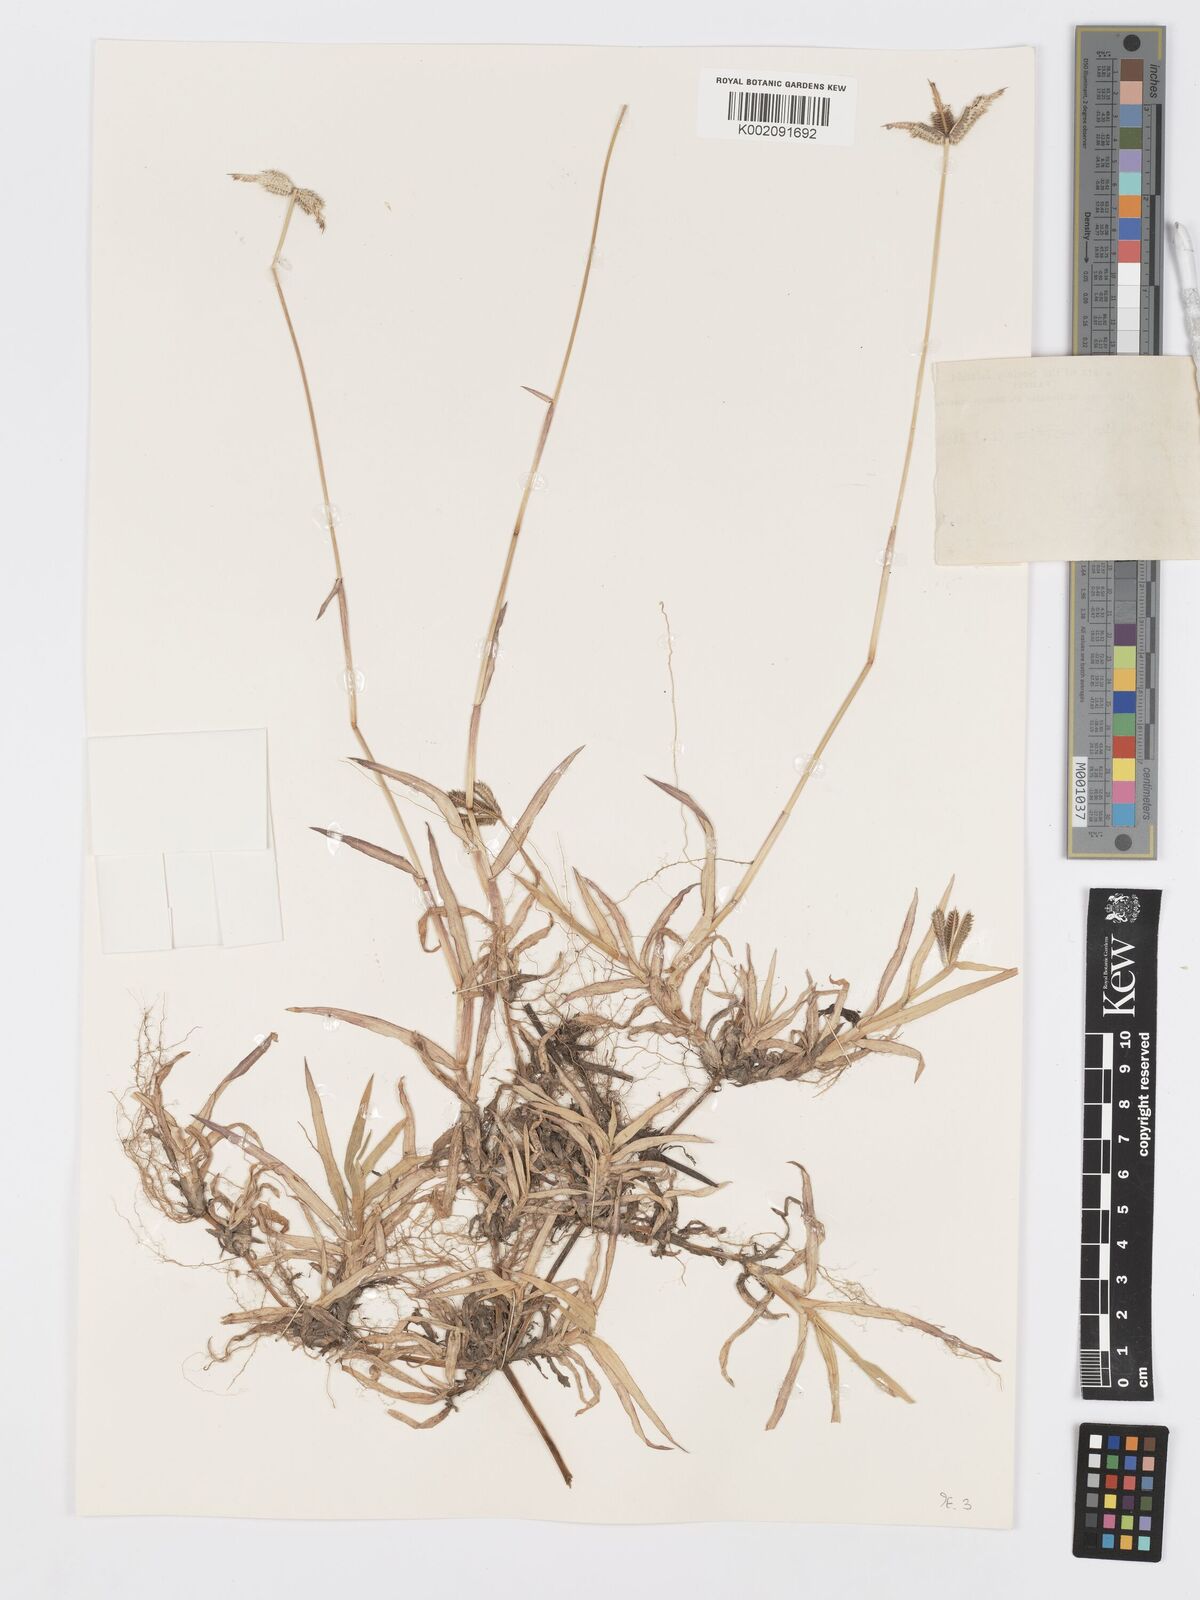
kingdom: Plantae
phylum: Tracheophyta
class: Liliopsida
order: Poales
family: Poaceae
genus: Dactyloctenium
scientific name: Dactyloctenium aegyptium
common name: Egyptian grass
